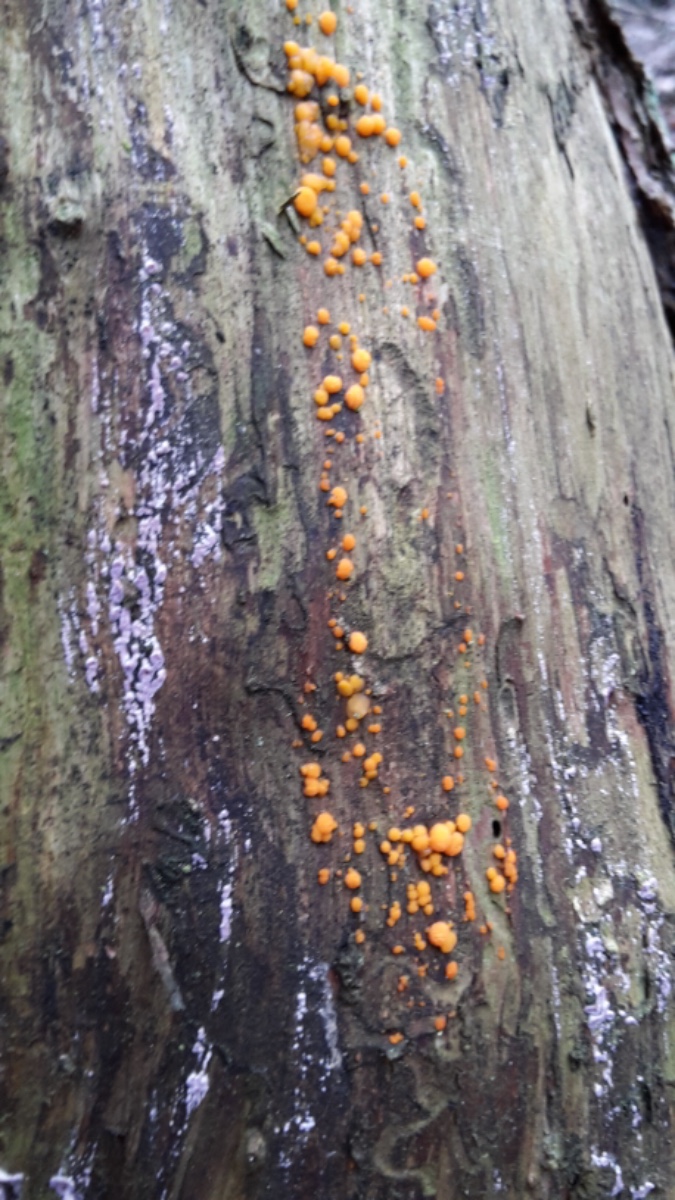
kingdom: Fungi
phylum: Basidiomycota
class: Dacrymycetes
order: Dacrymycetales
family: Dacrymycetaceae
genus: Dacrymyces
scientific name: Dacrymyces stillatus
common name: almindelig tåresvamp
